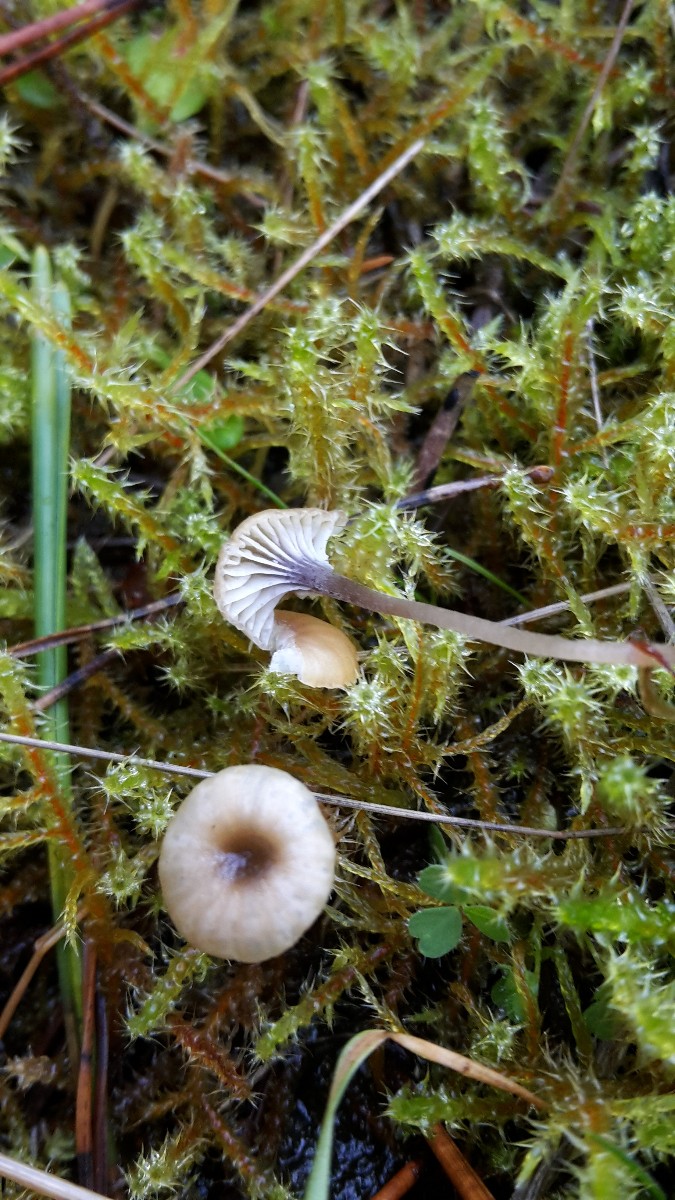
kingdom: Fungi
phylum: Basidiomycota
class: Agaricomycetes
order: Hymenochaetales
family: Rickenellaceae
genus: Rickenella
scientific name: Rickenella swartzii
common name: finstokket mosnavlehat
